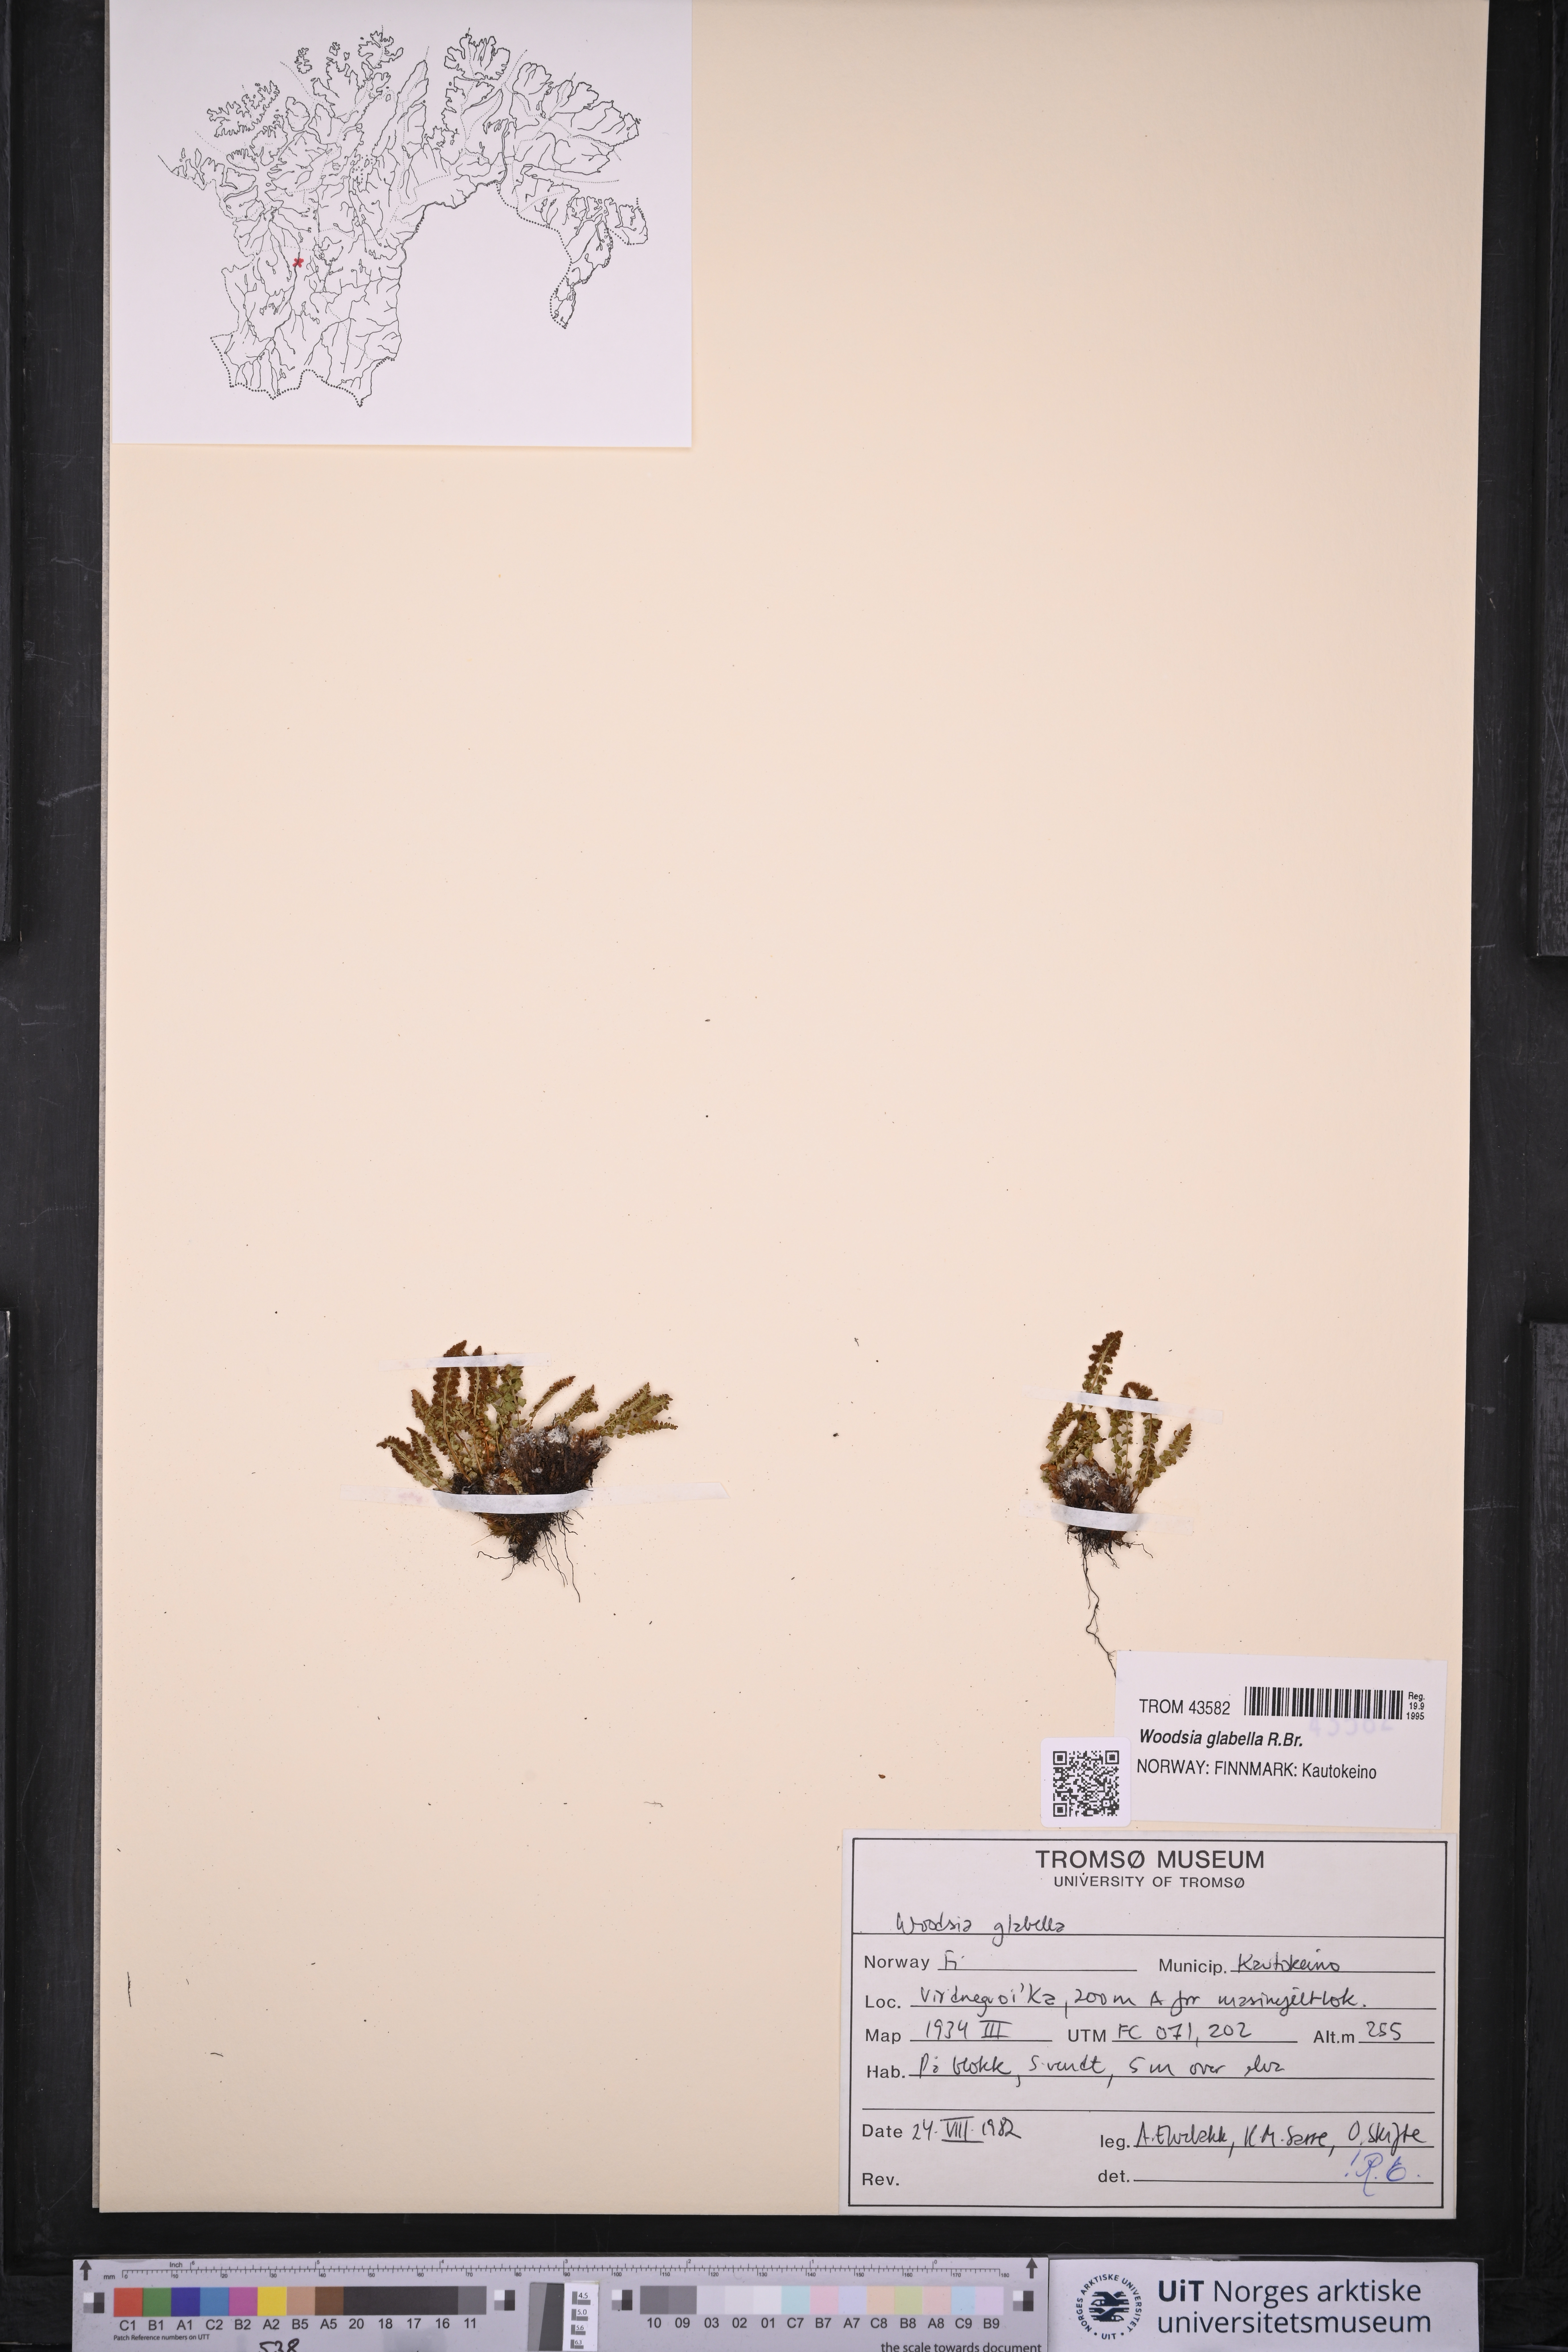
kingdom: Plantae
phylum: Tracheophyta
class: Polypodiopsida
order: Polypodiales
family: Woodsiaceae
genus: Woodsia
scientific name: Woodsia glabella
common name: Smooth woodsia
